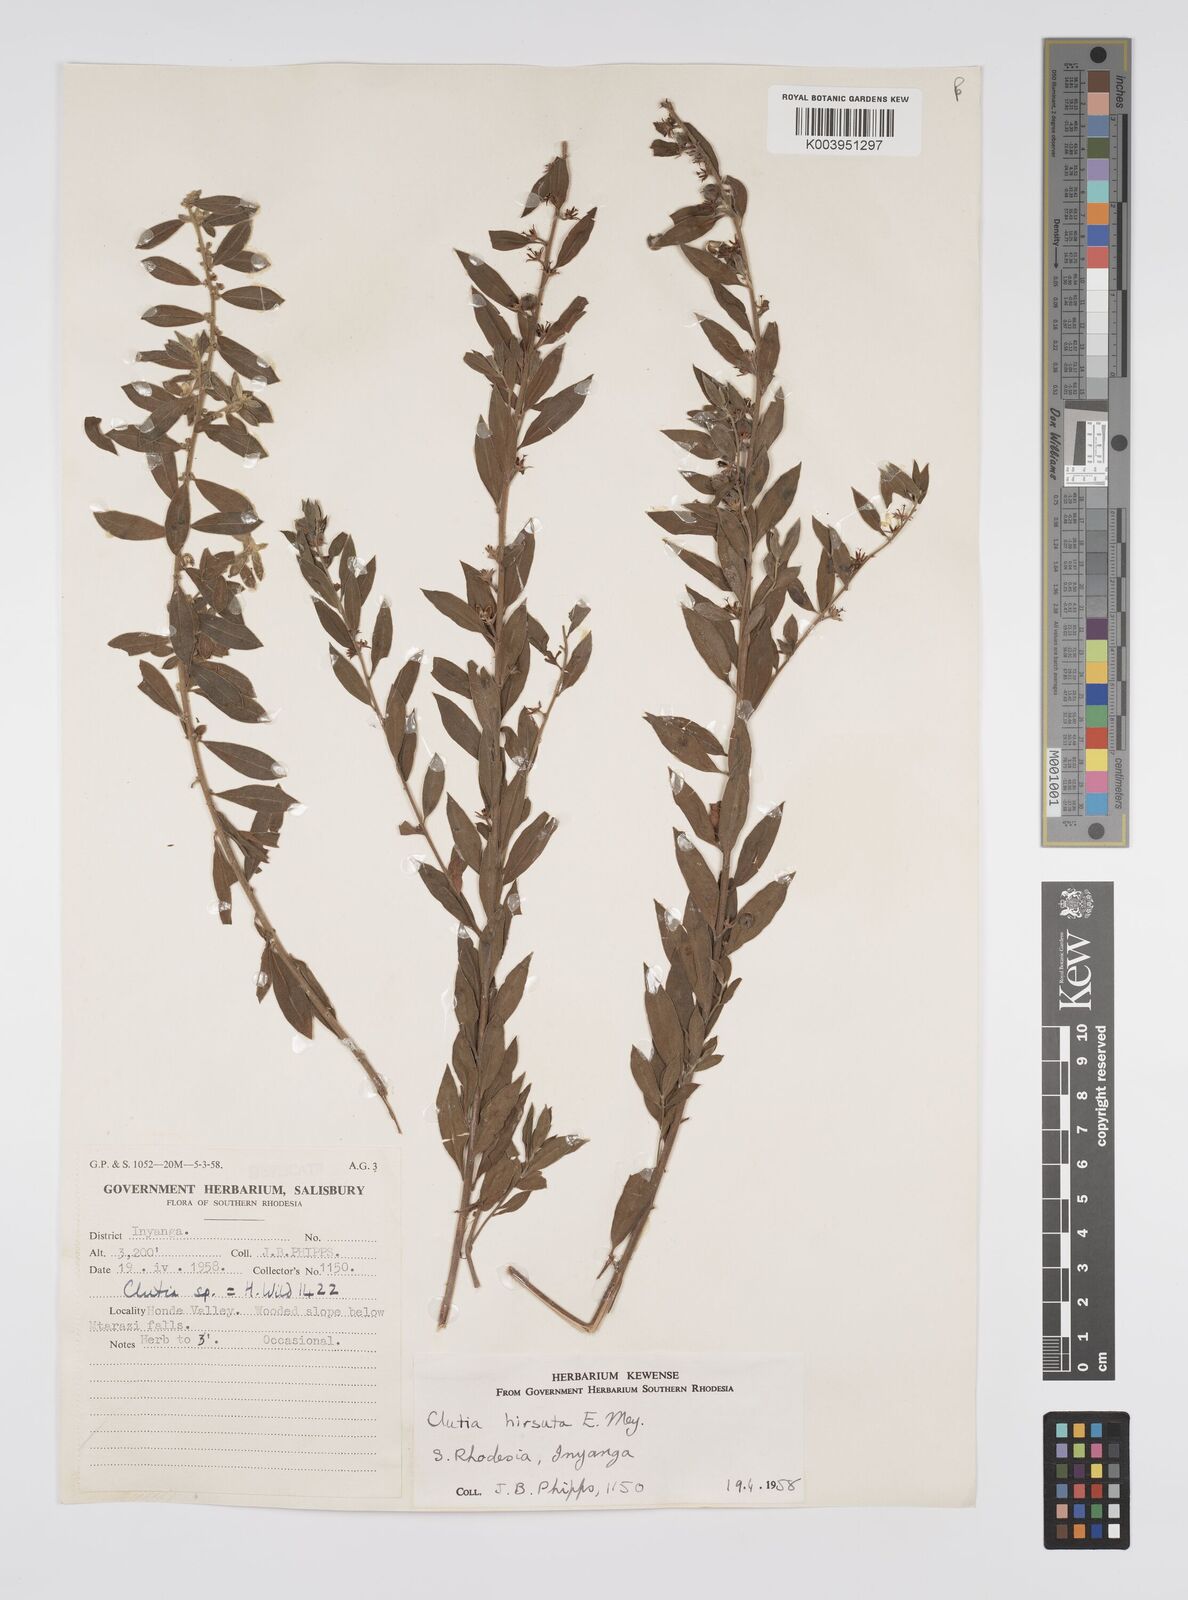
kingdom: Plantae
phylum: Tracheophyta
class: Magnoliopsida
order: Malpighiales
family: Peraceae
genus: Clutia
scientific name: Clutia hirsuta
